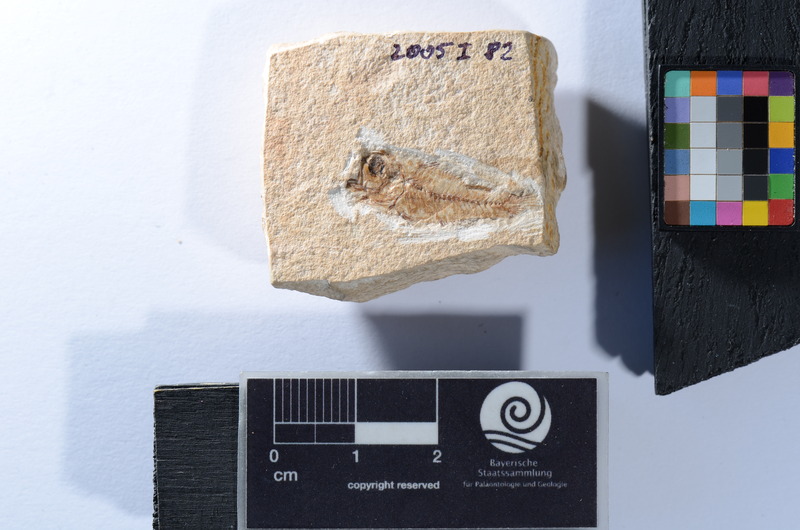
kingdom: Animalia
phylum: Chordata
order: Perciformes
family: Apogonidae
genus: Apogon
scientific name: Apogon spinosus
